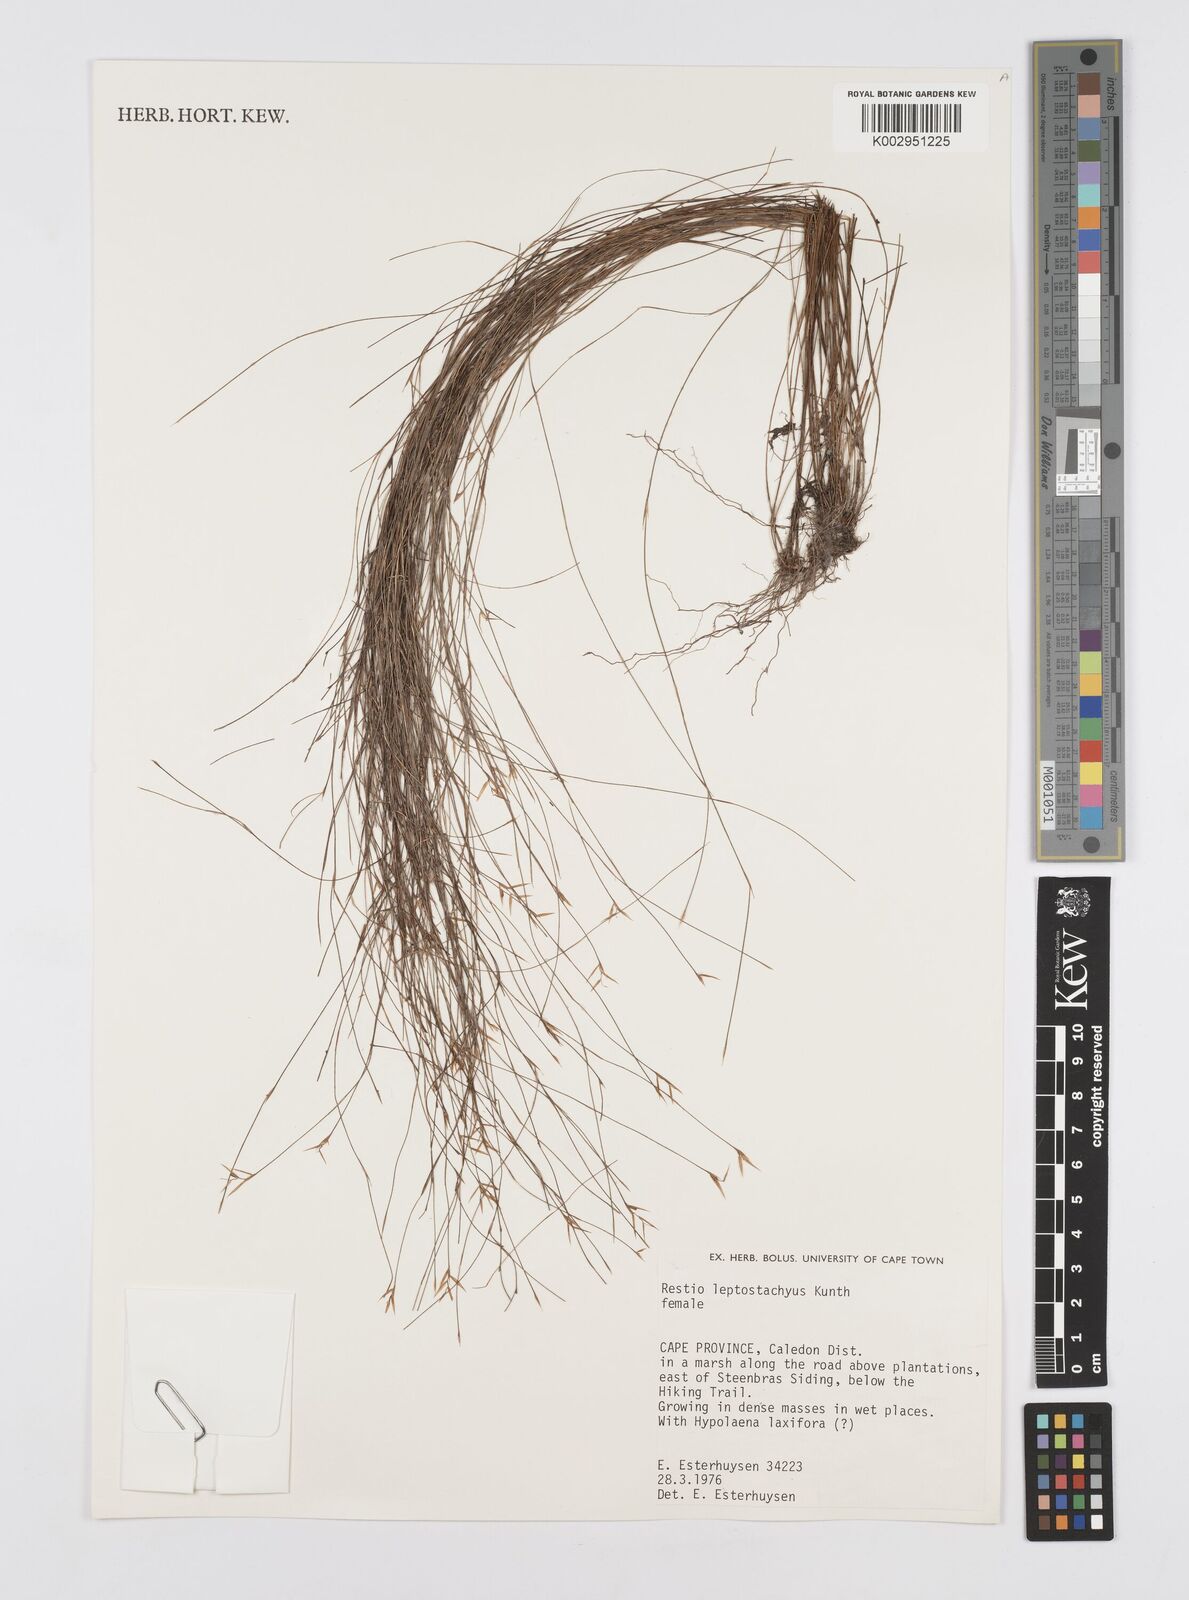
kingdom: Plantae
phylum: Tracheophyta
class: Liliopsida
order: Poales
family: Restionaceae
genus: Restio
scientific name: Restio leptostachyus
